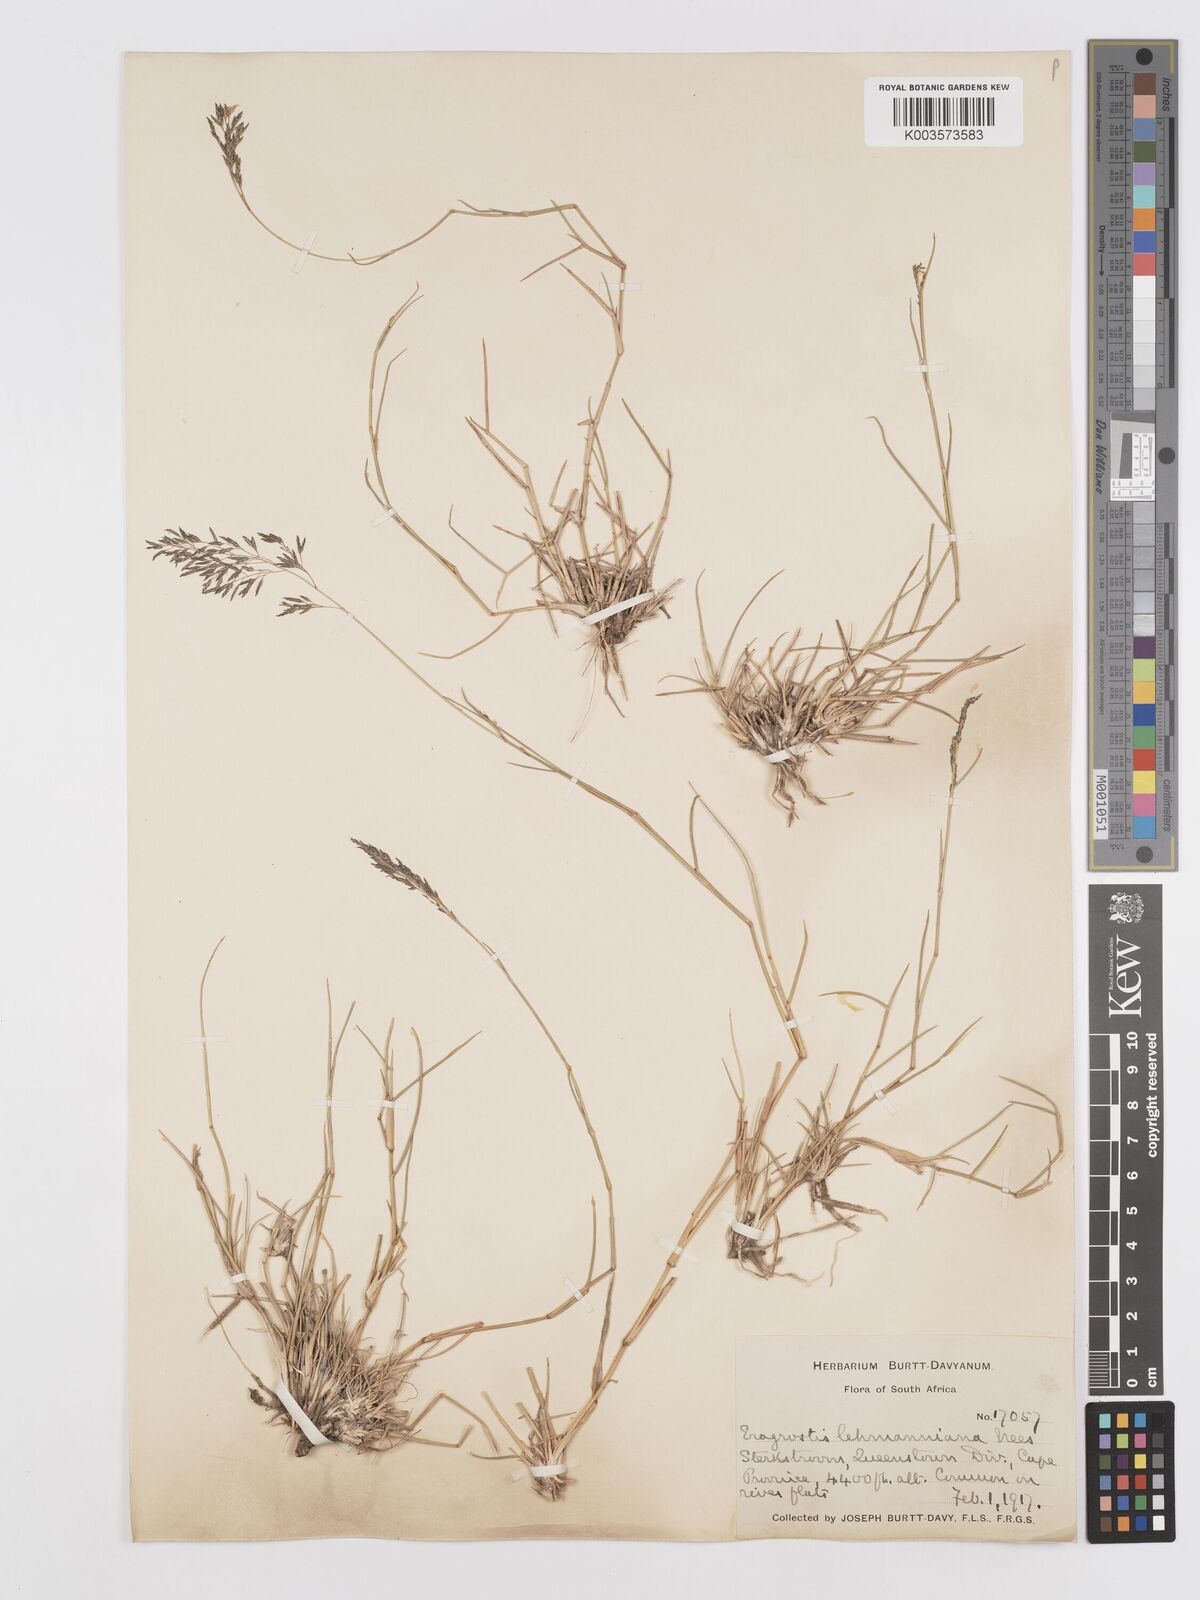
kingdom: Plantae
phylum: Tracheophyta
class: Liliopsida
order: Poales
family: Poaceae
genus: Eragrostis
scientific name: Eragrostis lehmanniana
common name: Lehmann lovegrass
